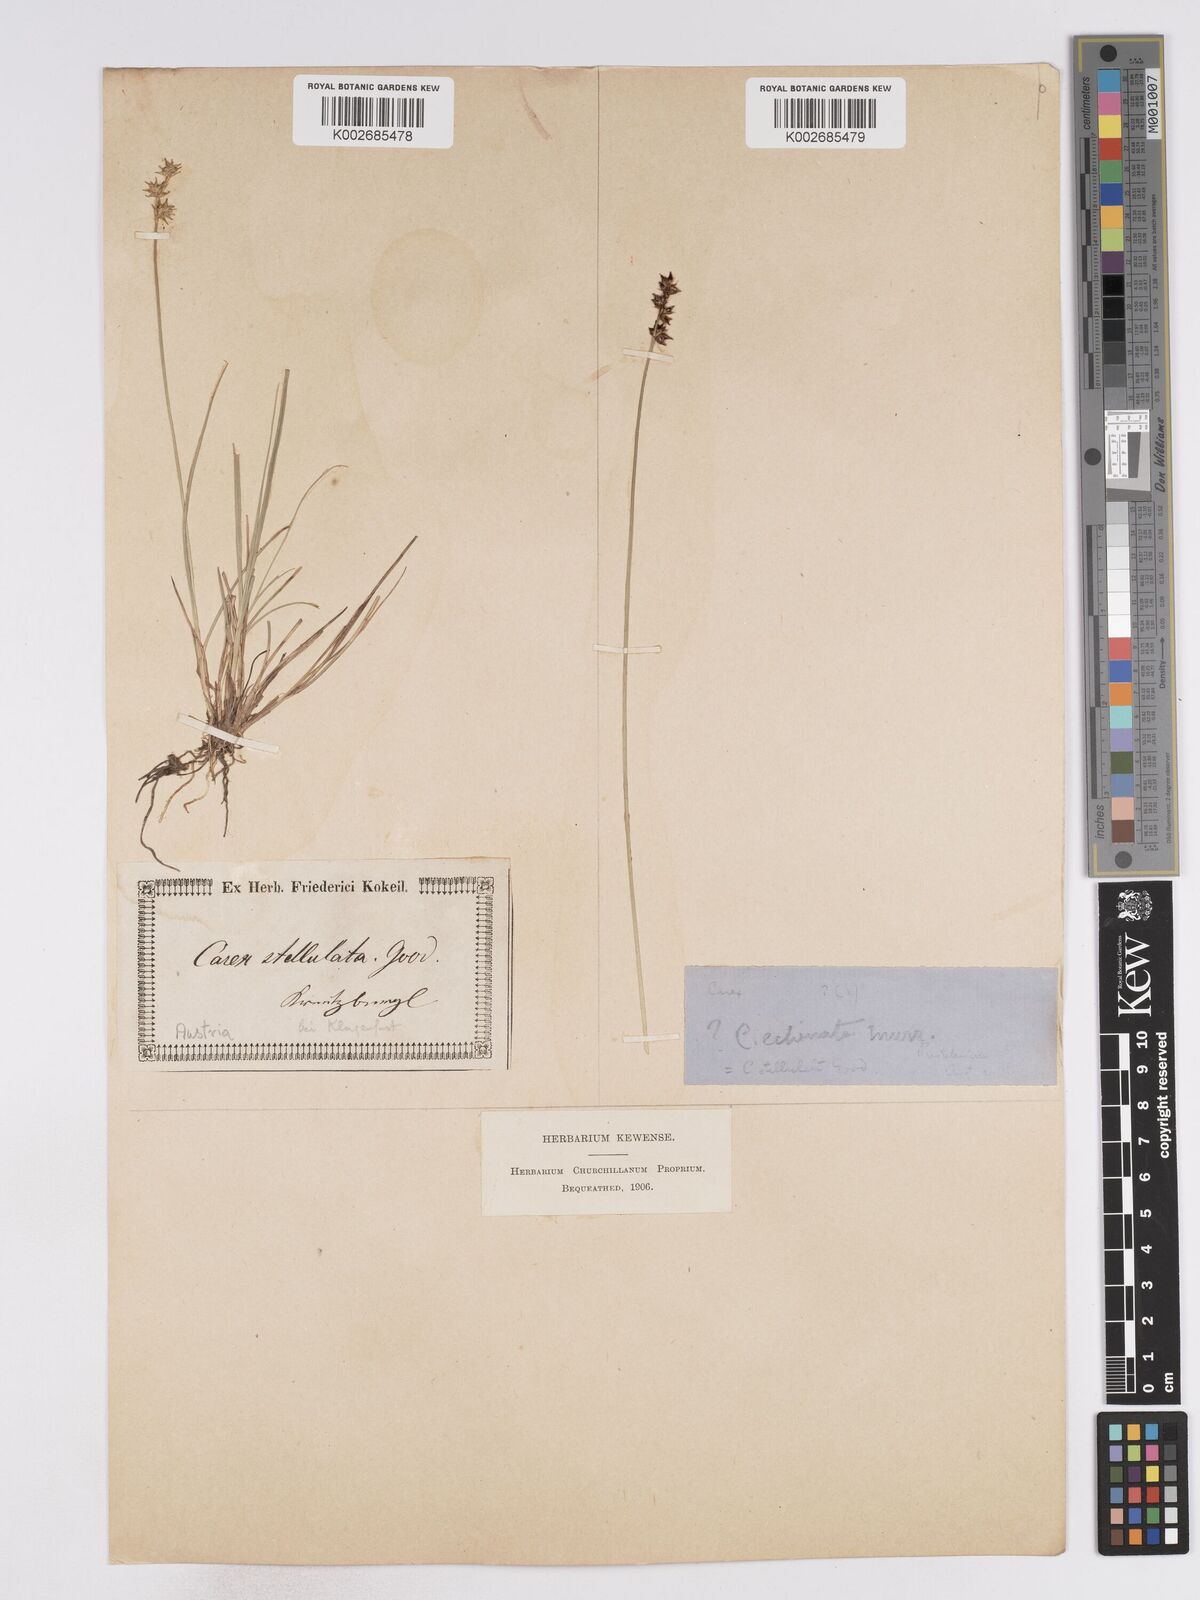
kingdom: Plantae
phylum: Tracheophyta
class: Liliopsida
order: Poales
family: Cyperaceae
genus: Carex
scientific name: Carex echinata
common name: Star sedge
